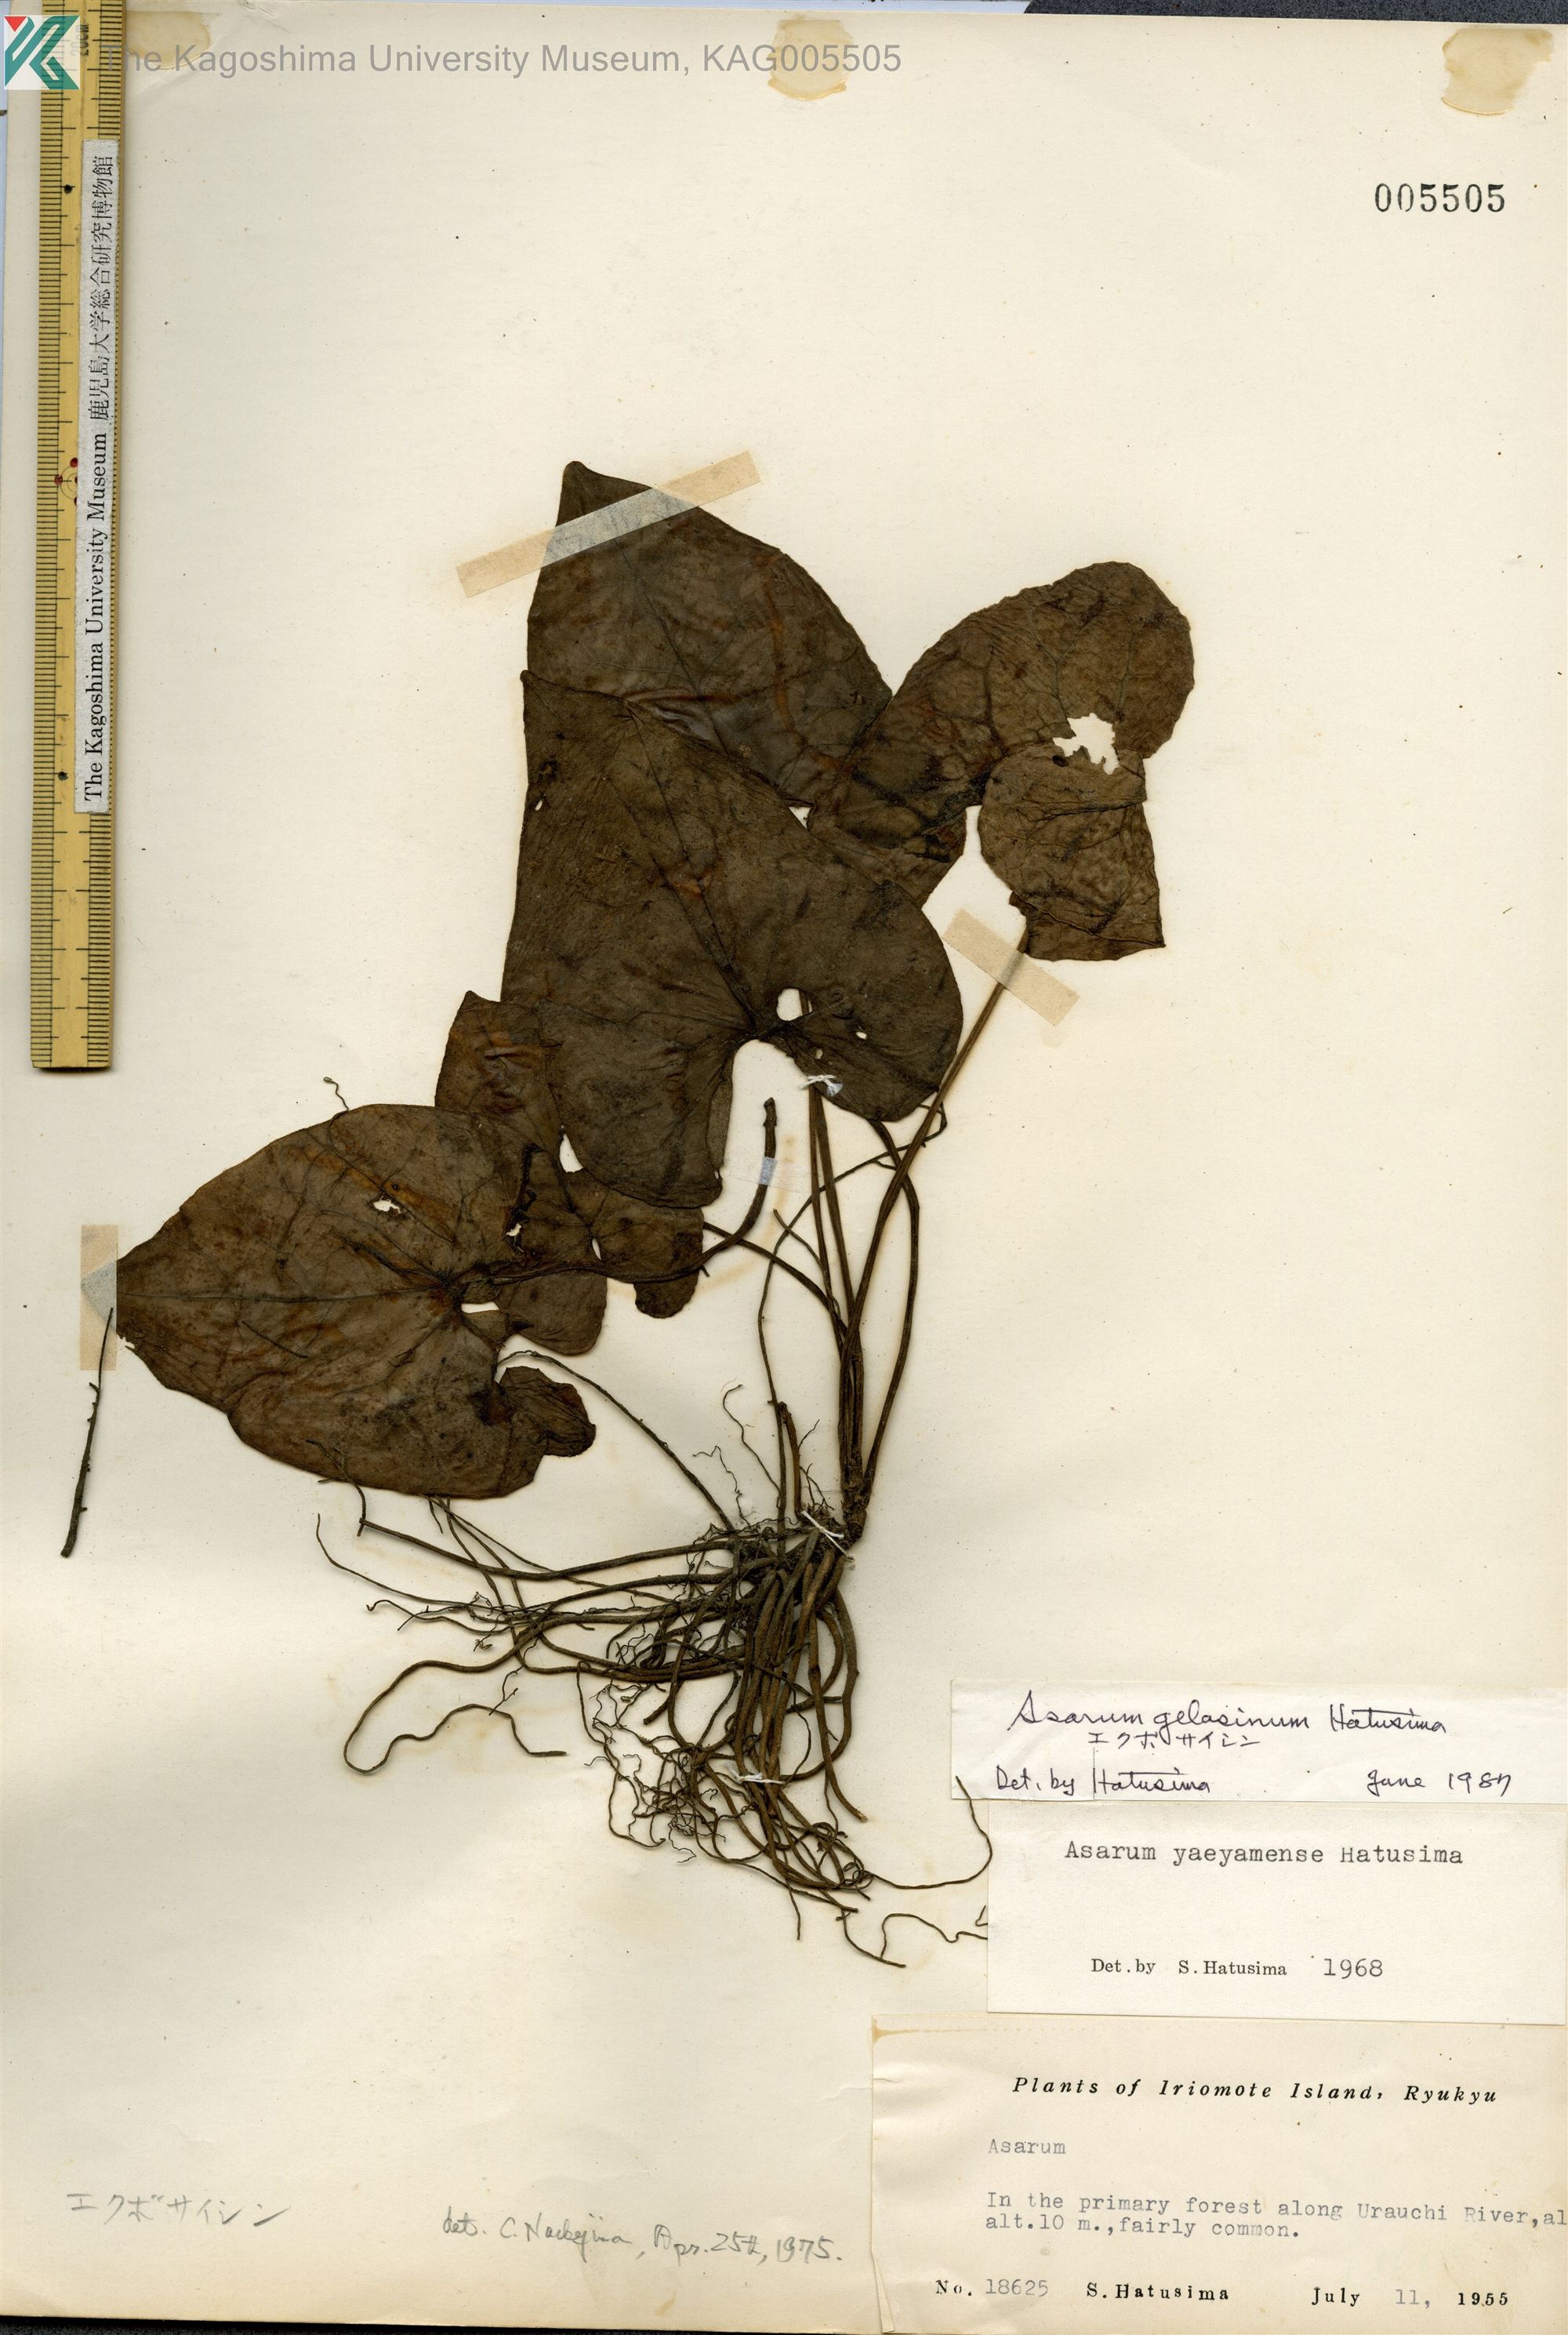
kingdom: Plantae
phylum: Tracheophyta
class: Magnoliopsida
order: Piperales
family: Aristolochiaceae
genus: Asarum
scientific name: Asarum gelasinum
